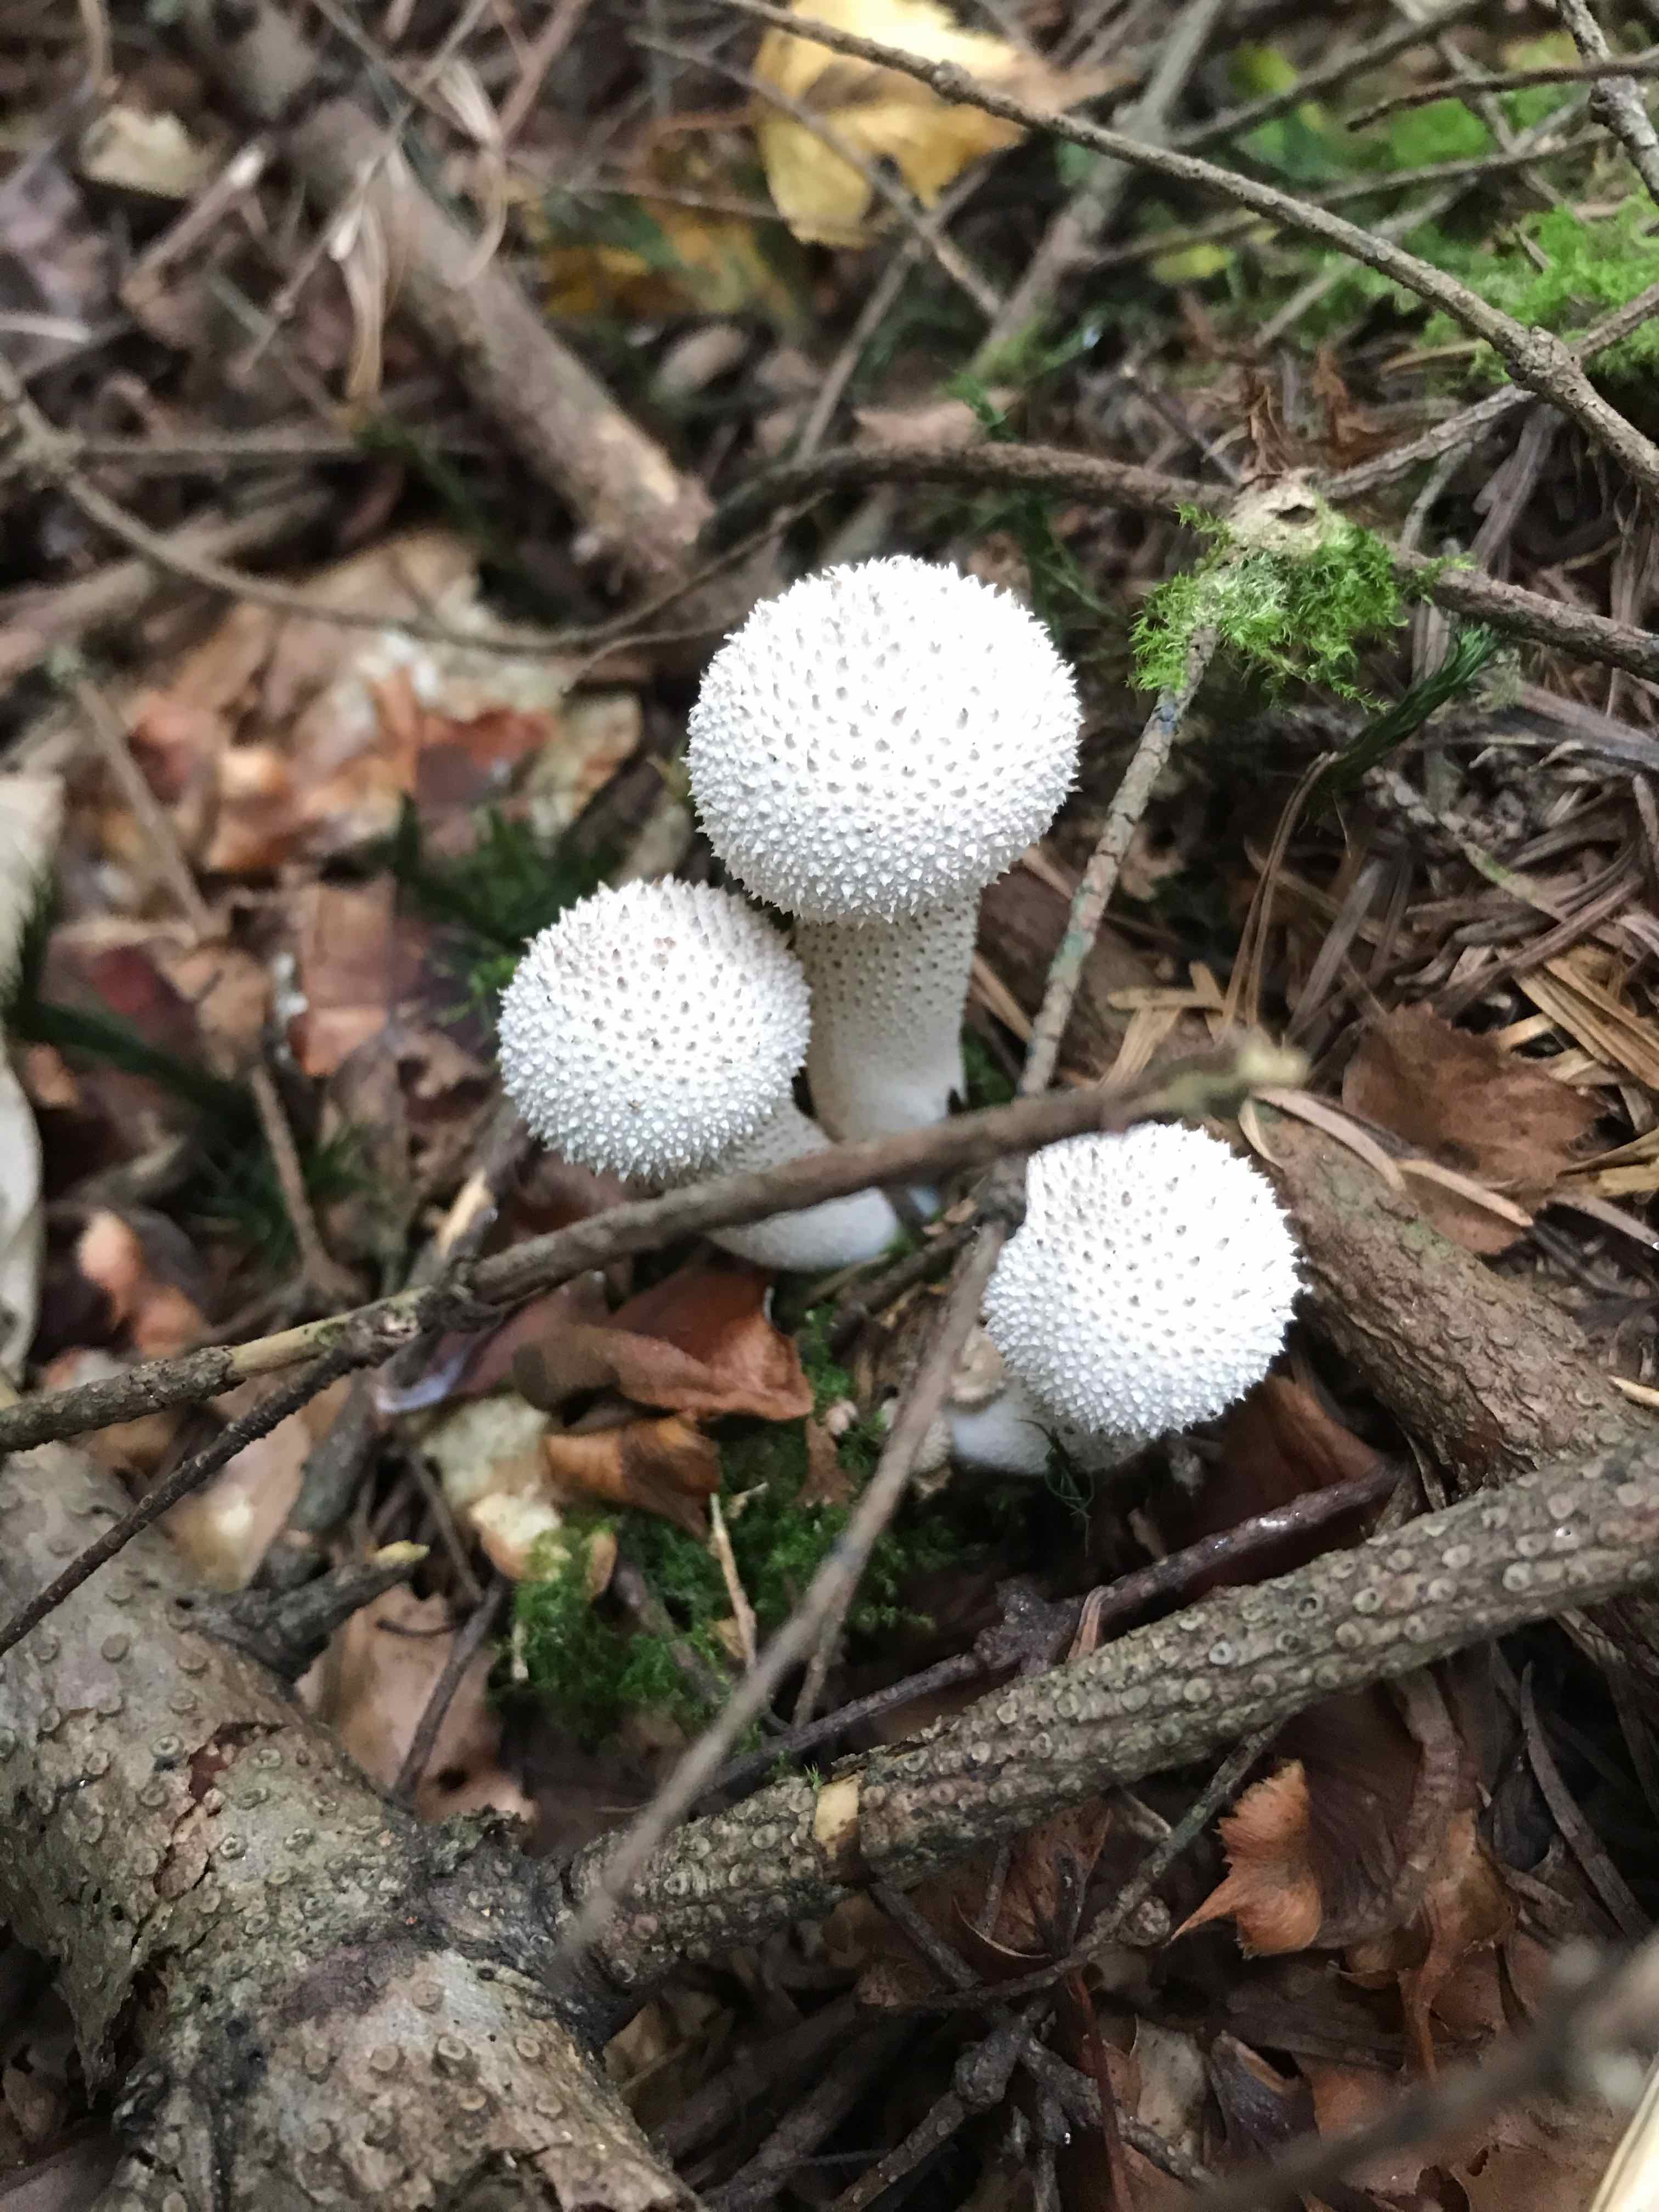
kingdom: Fungi
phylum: Basidiomycota
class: Agaricomycetes
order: Agaricales
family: Lycoperdaceae
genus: Lycoperdon
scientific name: Lycoperdon perlatum
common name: krystal-støvbold
